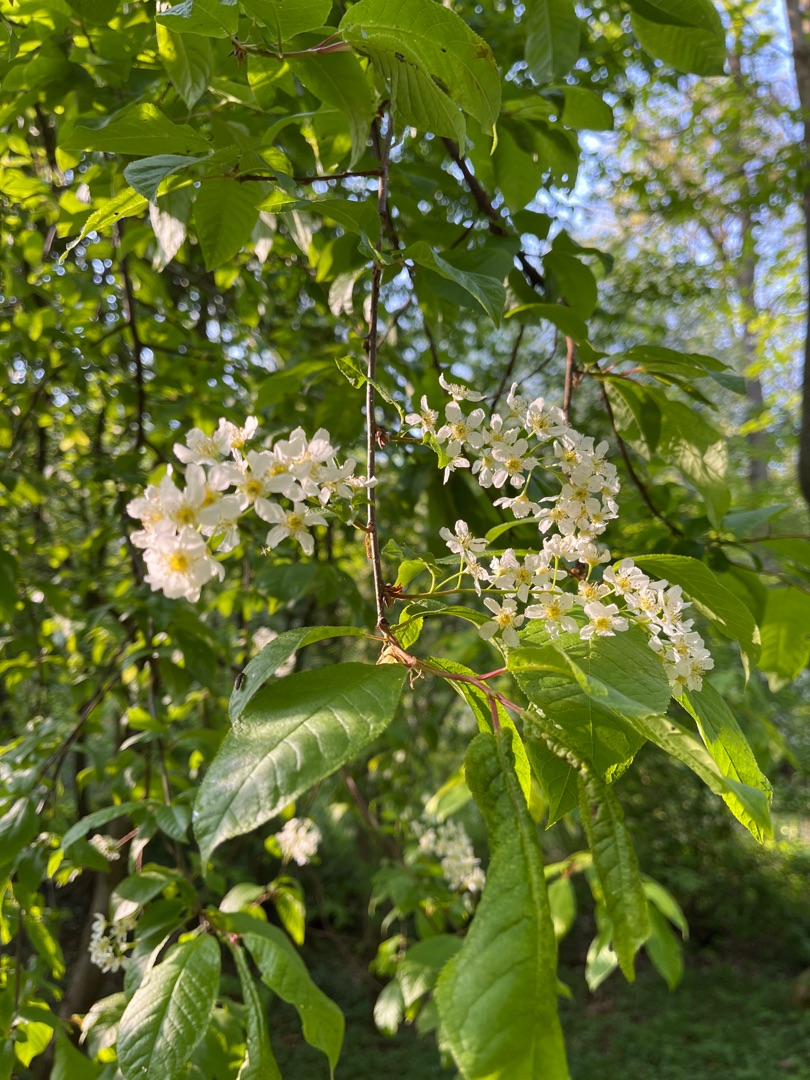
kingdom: Plantae
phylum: Tracheophyta
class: Magnoliopsida
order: Rosales
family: Rosaceae
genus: Prunus
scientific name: Prunus padus
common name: Almindelig hæg
